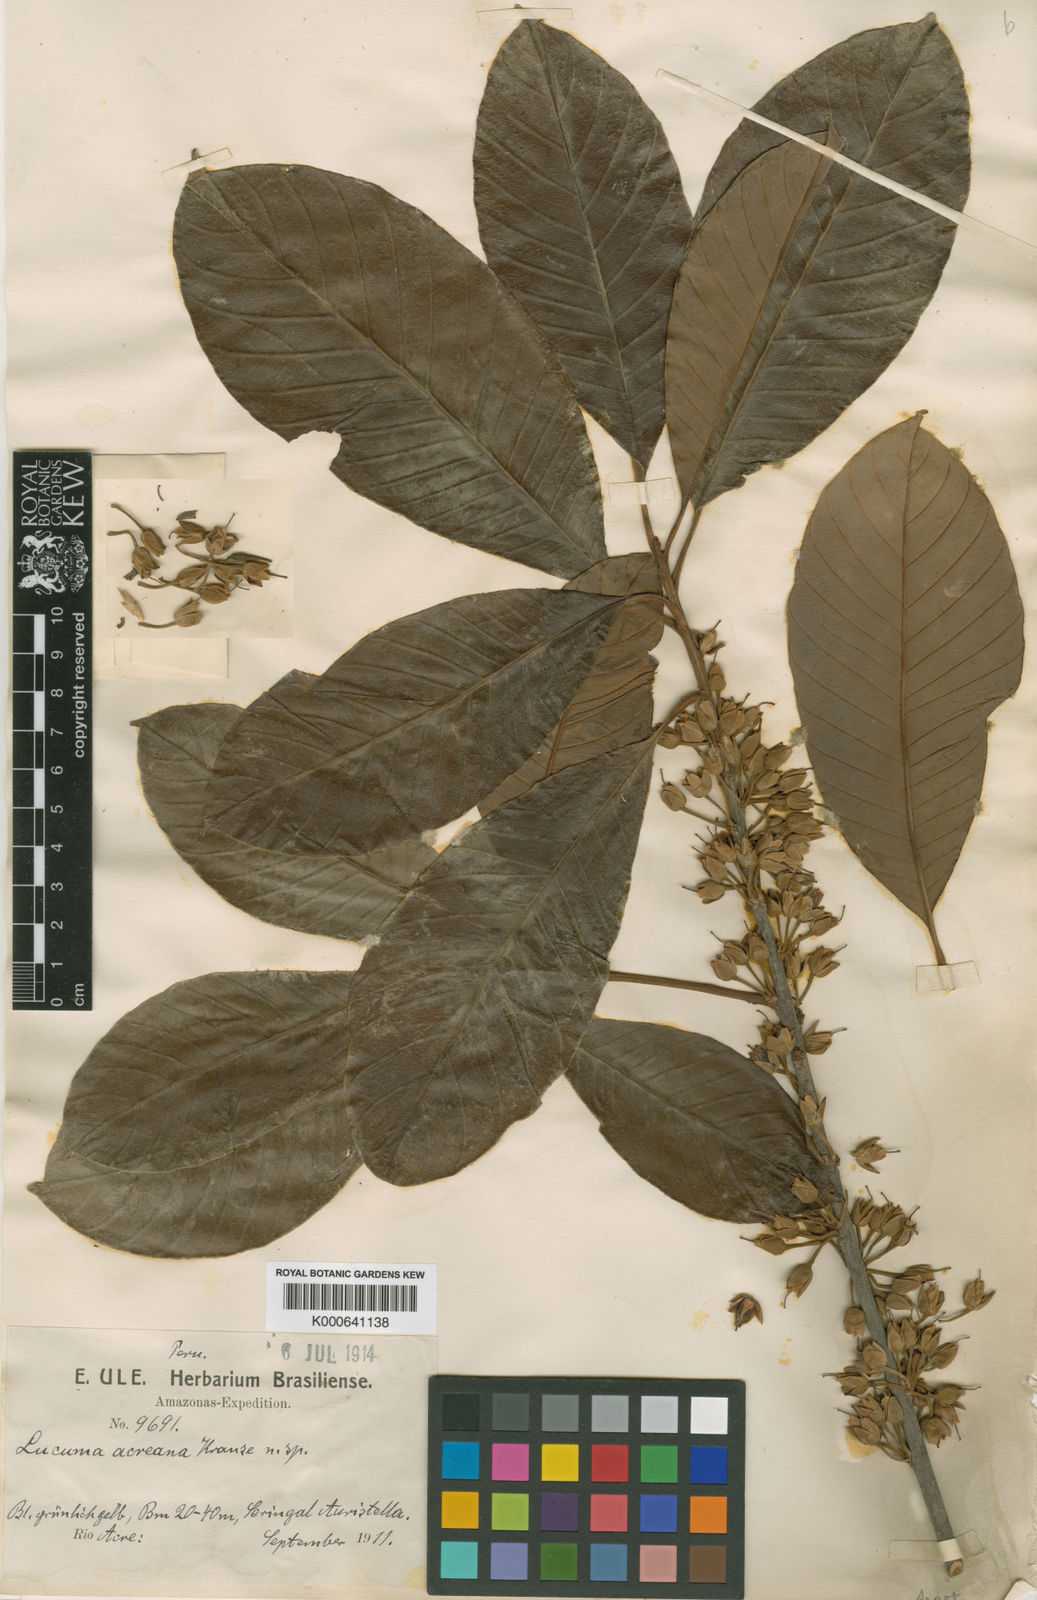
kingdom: Plantae
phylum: Tracheophyta
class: Magnoliopsida
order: Ericales
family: Sapotaceae
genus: Pouteria
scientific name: Pouteria macrophylla
